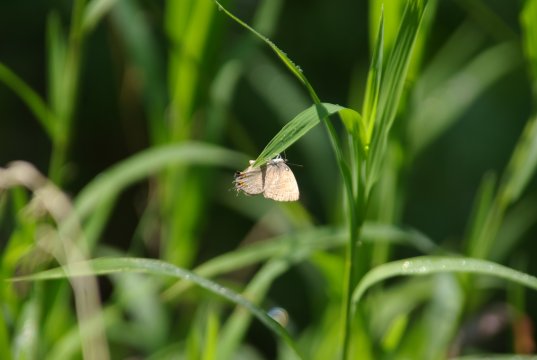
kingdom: Animalia
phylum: Arthropoda
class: Insecta
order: Lepidoptera
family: Lycaenidae
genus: Satyrium
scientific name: Satyrium liparops
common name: Striped Hairstreak
